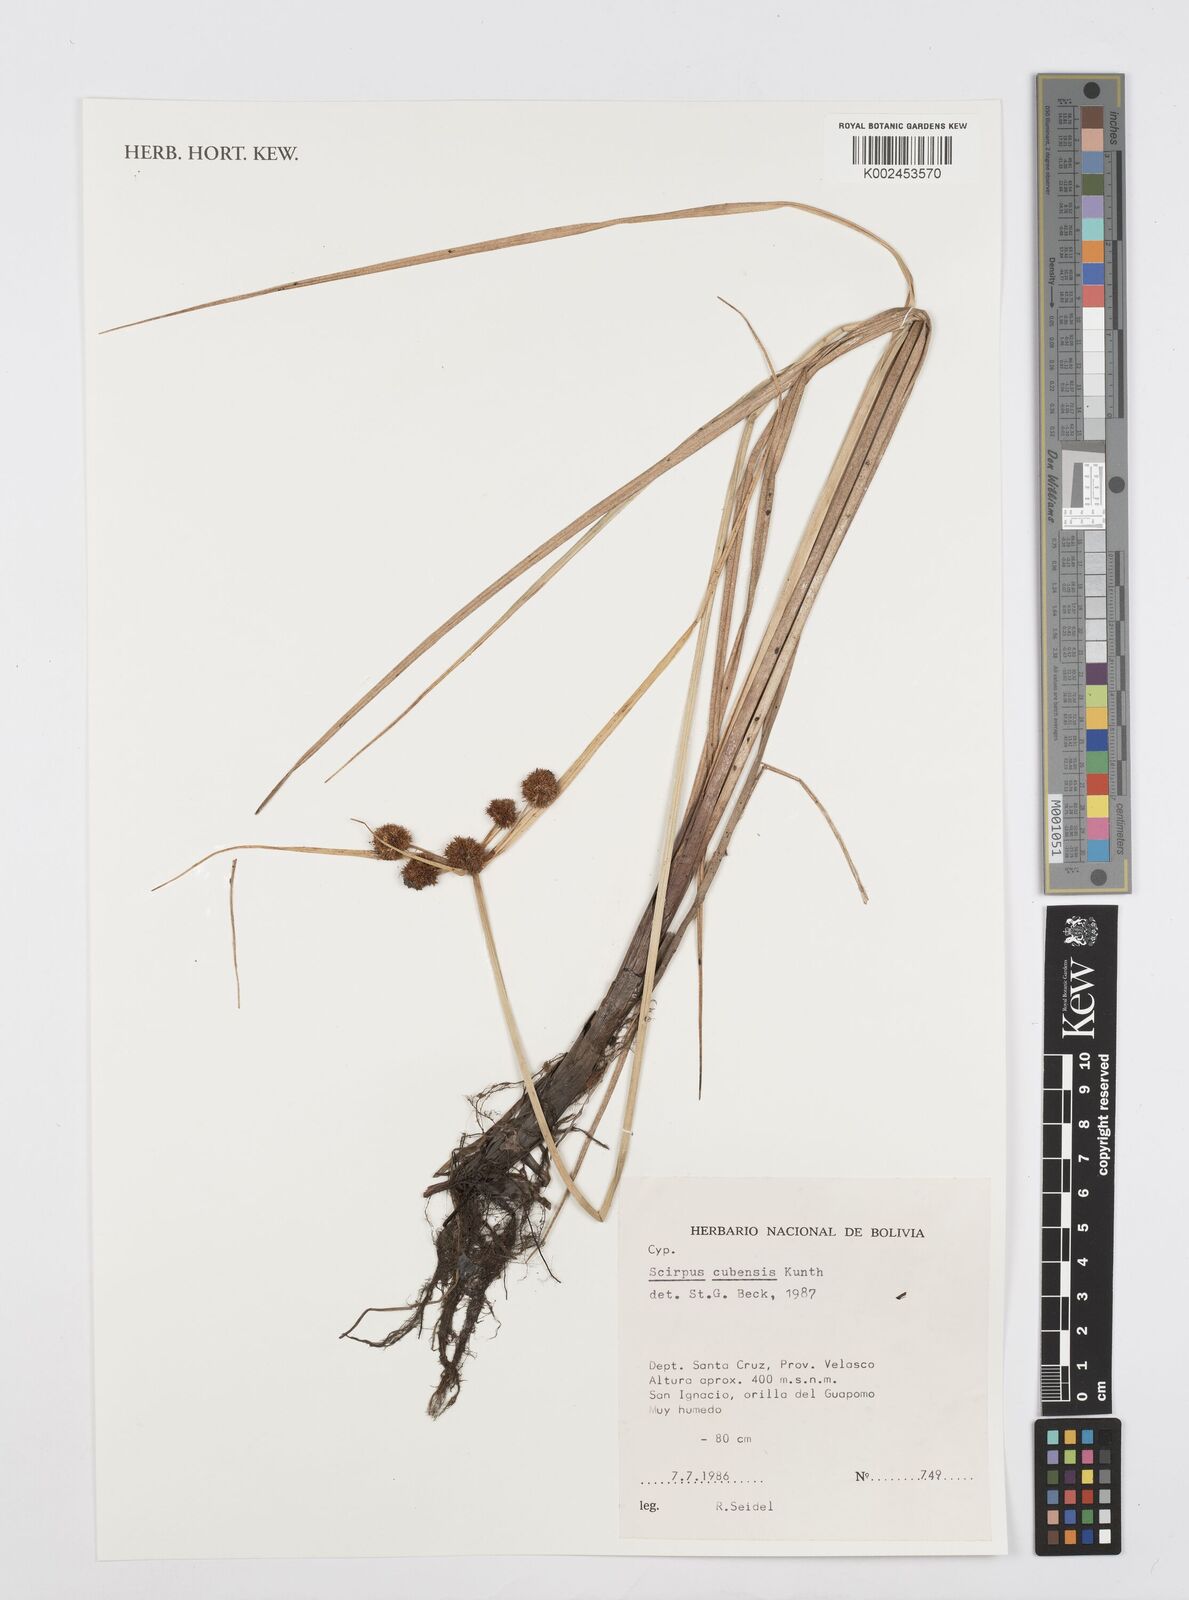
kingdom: Plantae
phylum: Tracheophyta
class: Liliopsida
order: Poales
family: Cyperaceae
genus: Cyperus
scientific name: Cyperus elegans
